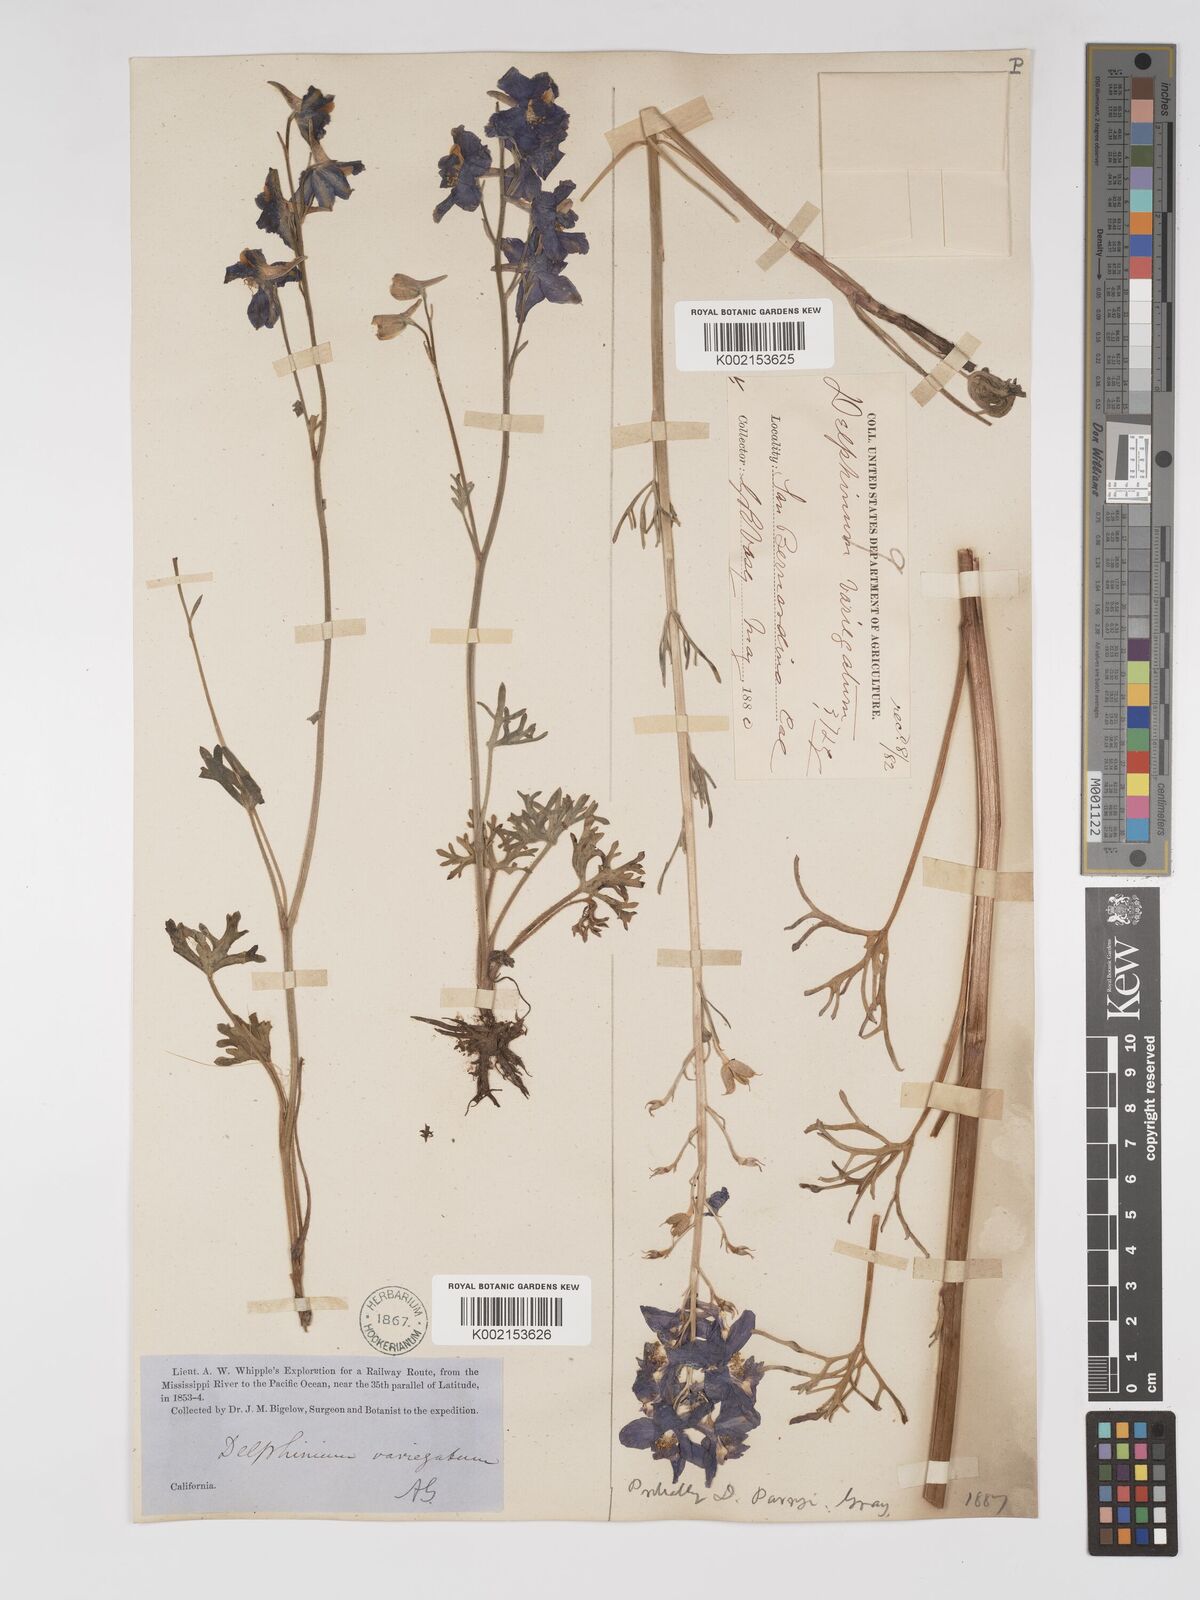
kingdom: Plantae
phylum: Tracheophyta
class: Magnoliopsida
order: Ranunculales
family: Ranunculaceae
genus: Delphinium
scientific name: Delphinium parryi
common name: Parry's larkspur
